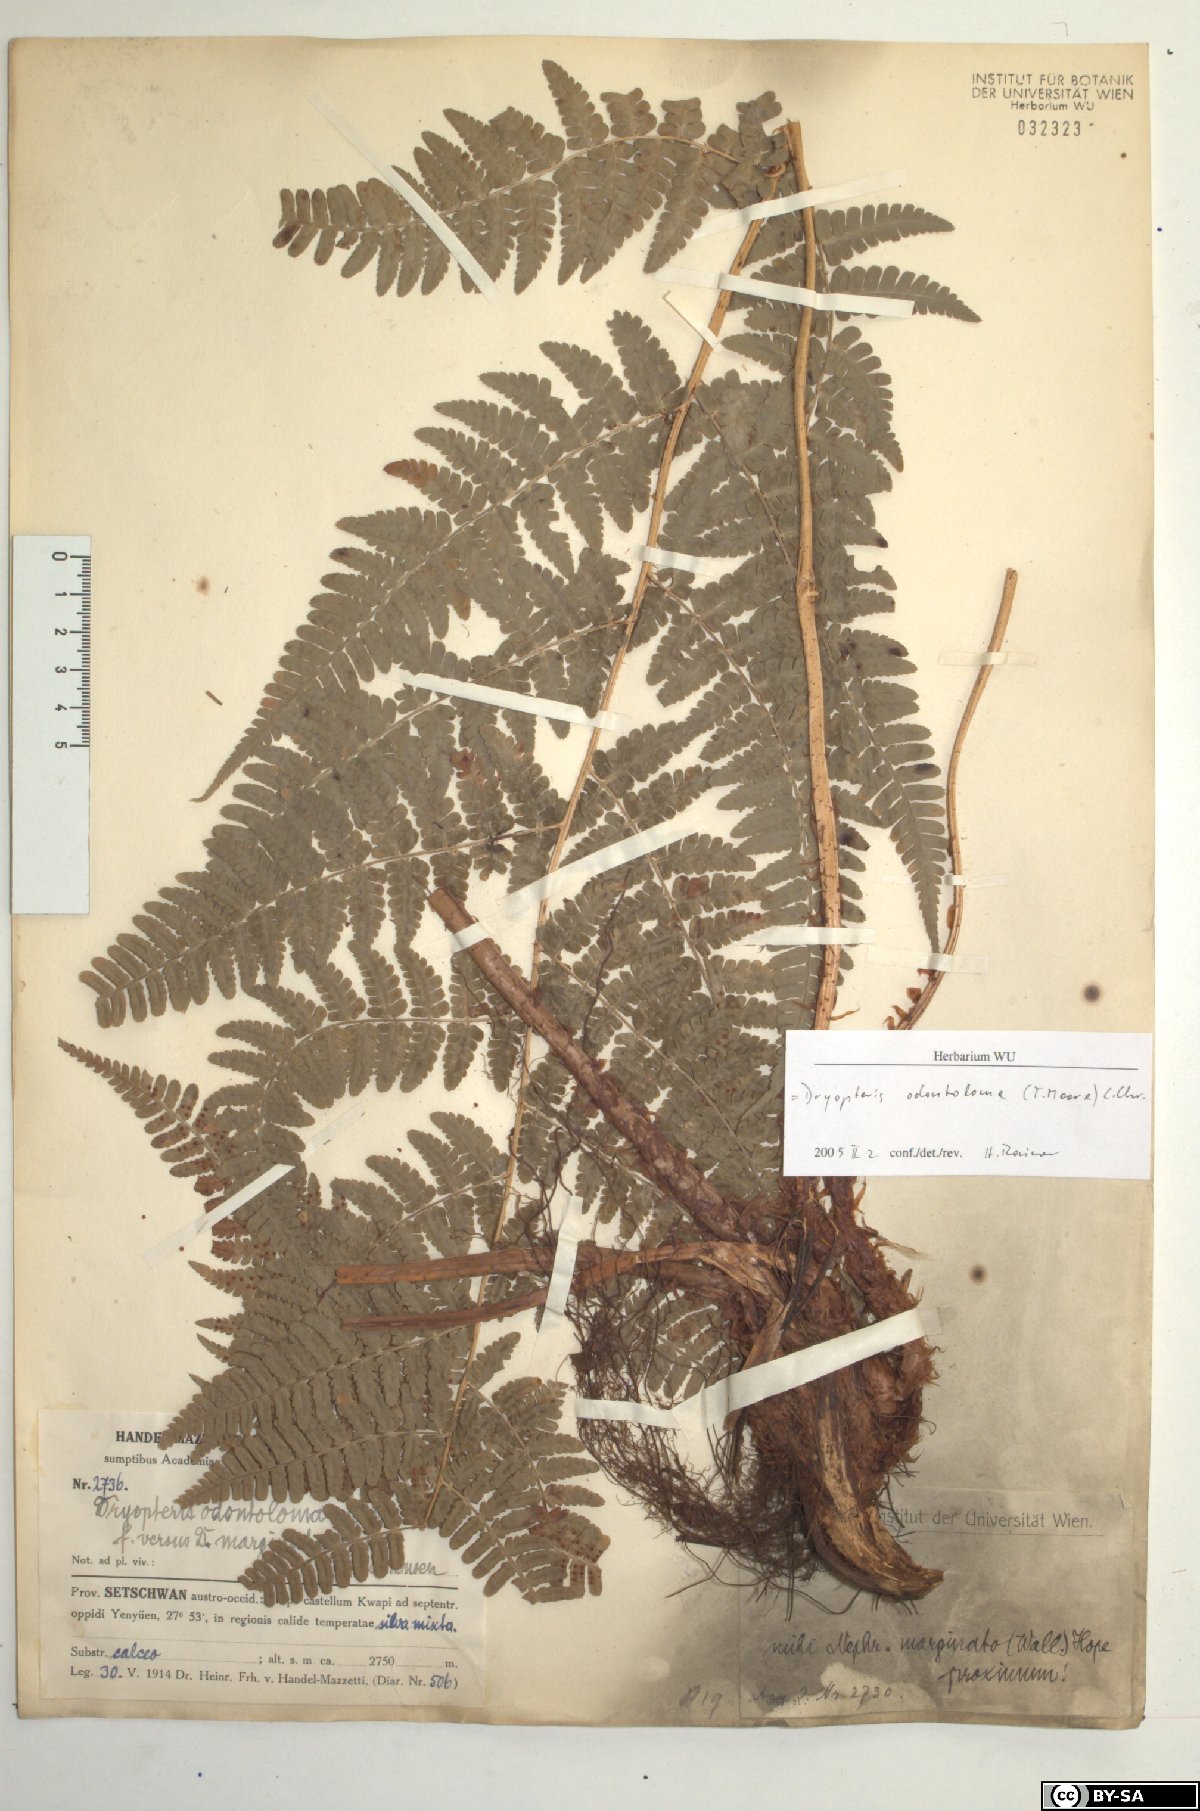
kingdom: Plantae
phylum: Tracheophyta
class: Polypodiopsida
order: Polypodiales
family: Dryopteridaceae
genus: Dryopteris
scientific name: Dryopteris odontoloma
